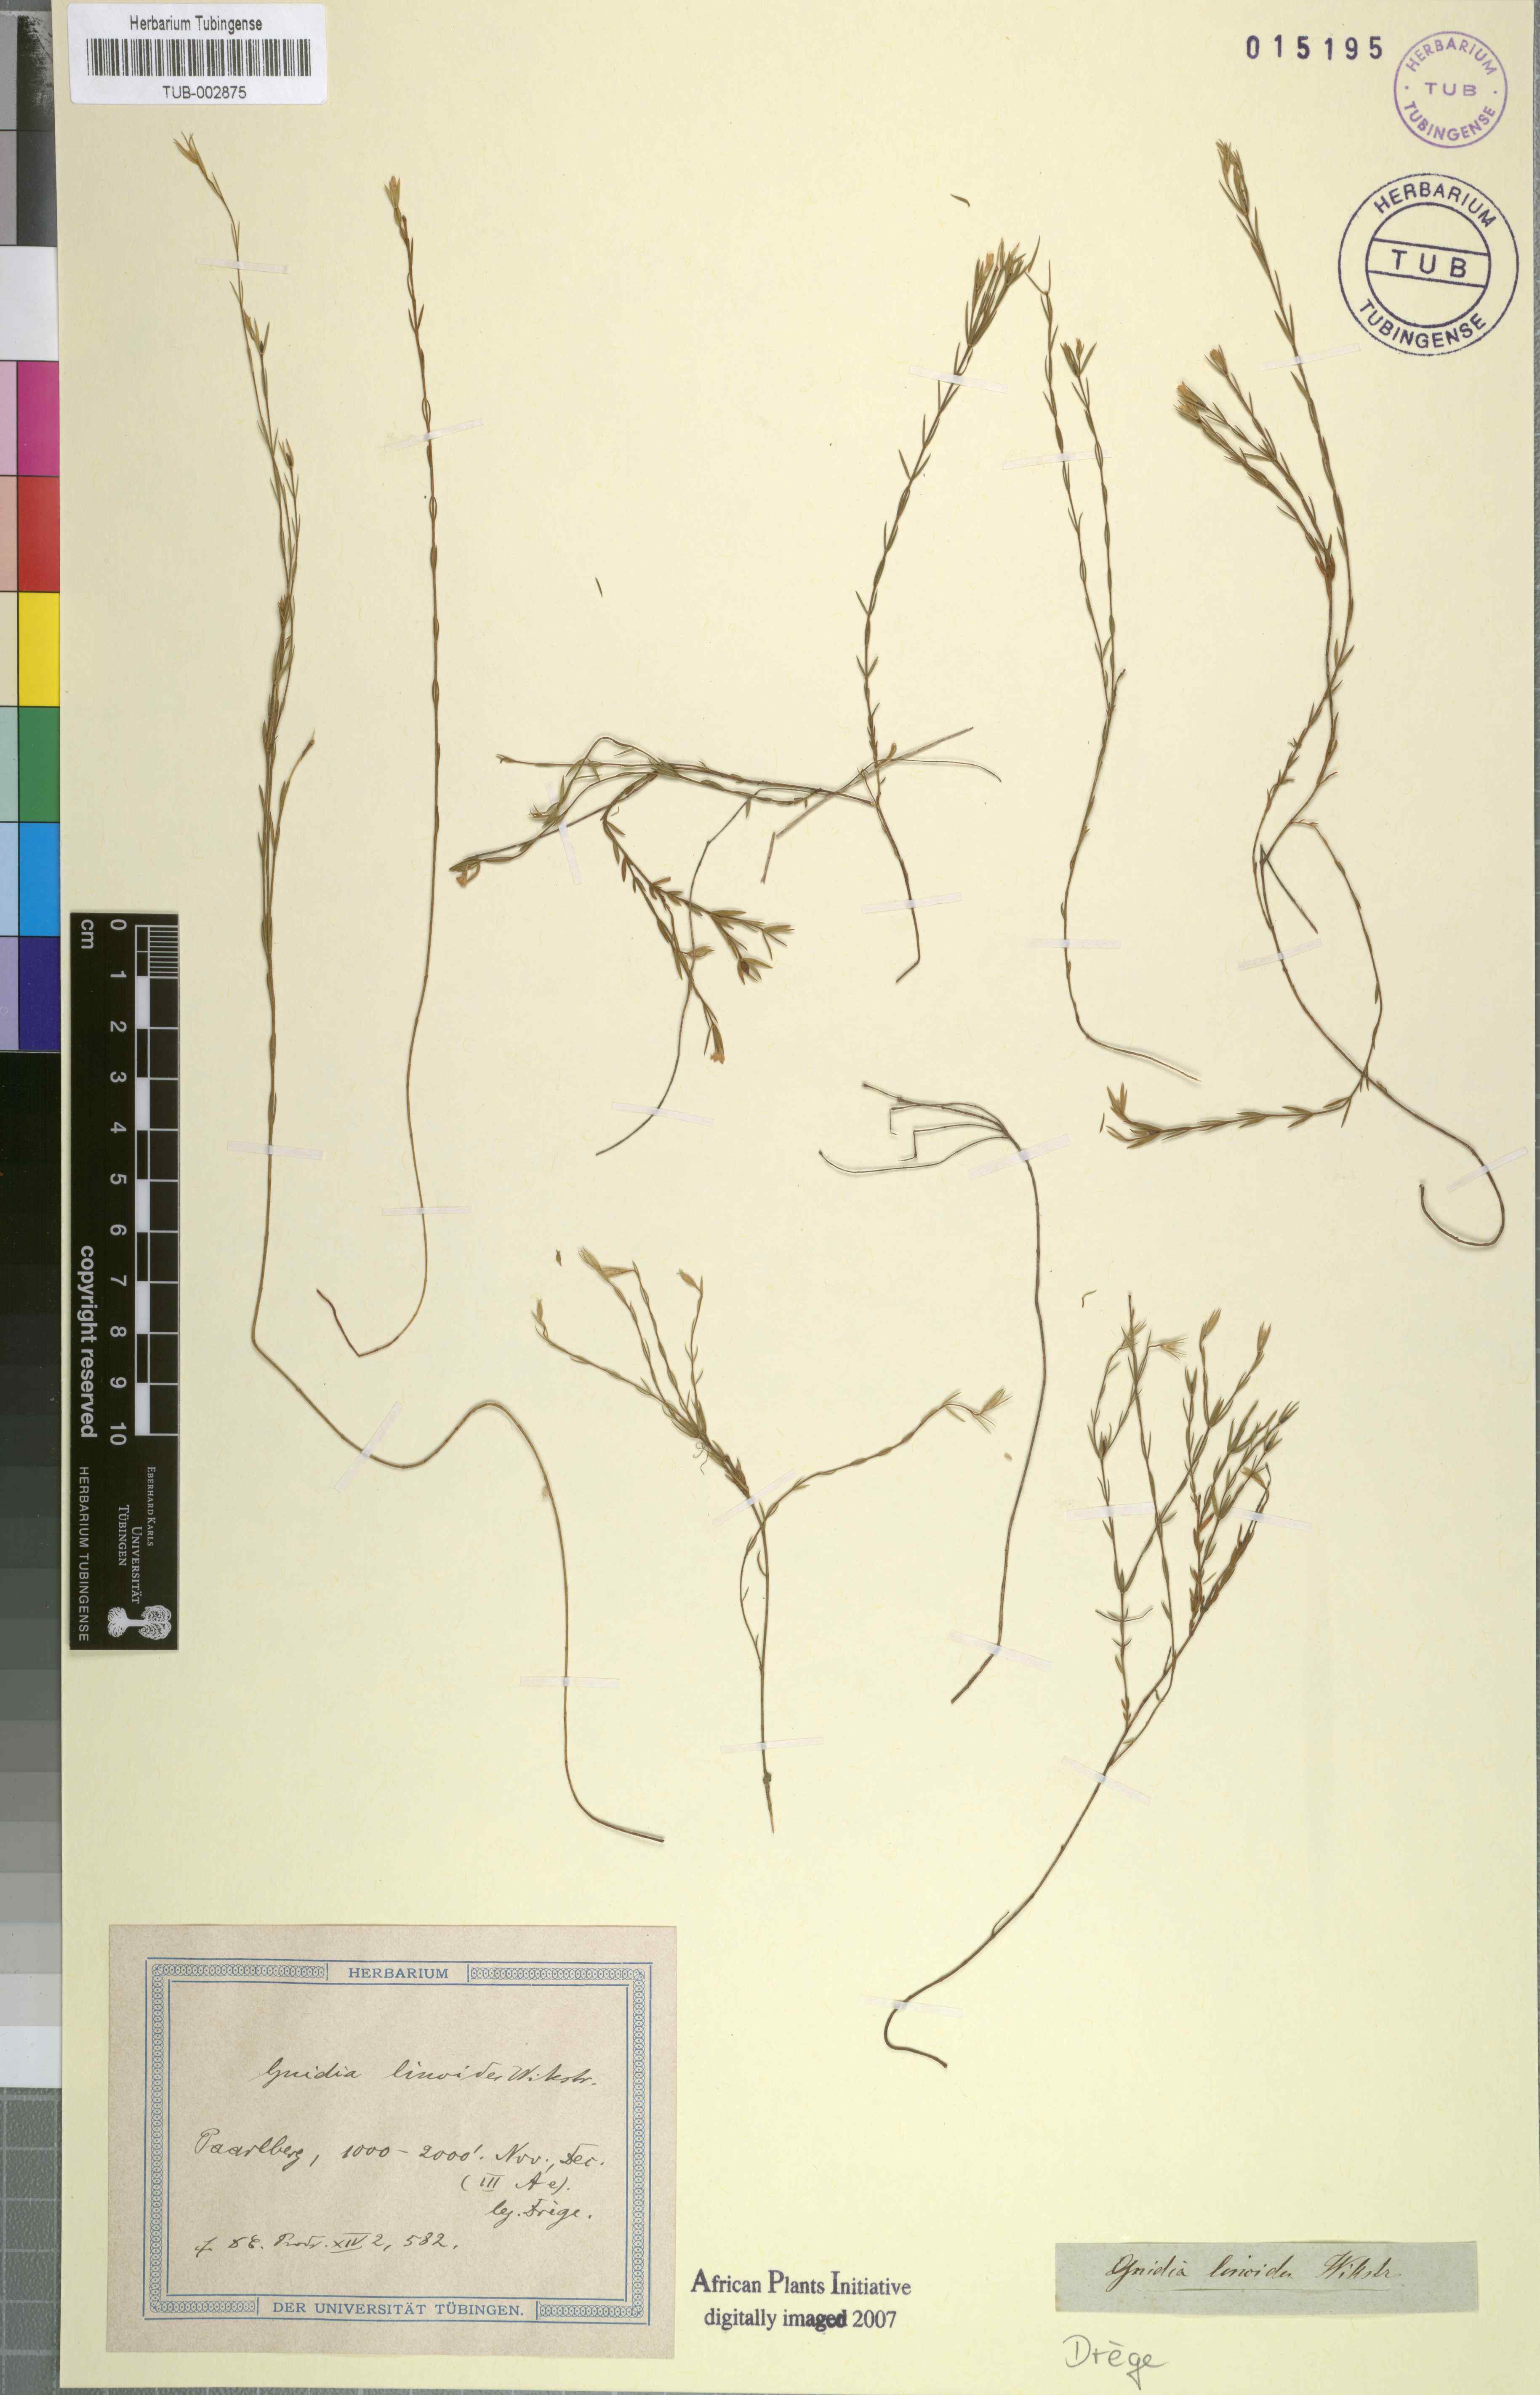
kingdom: Plantae
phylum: Tracheophyta
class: Magnoliopsida
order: Malvales
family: Thymelaeaceae
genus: Gnidia
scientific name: Gnidia linoides
